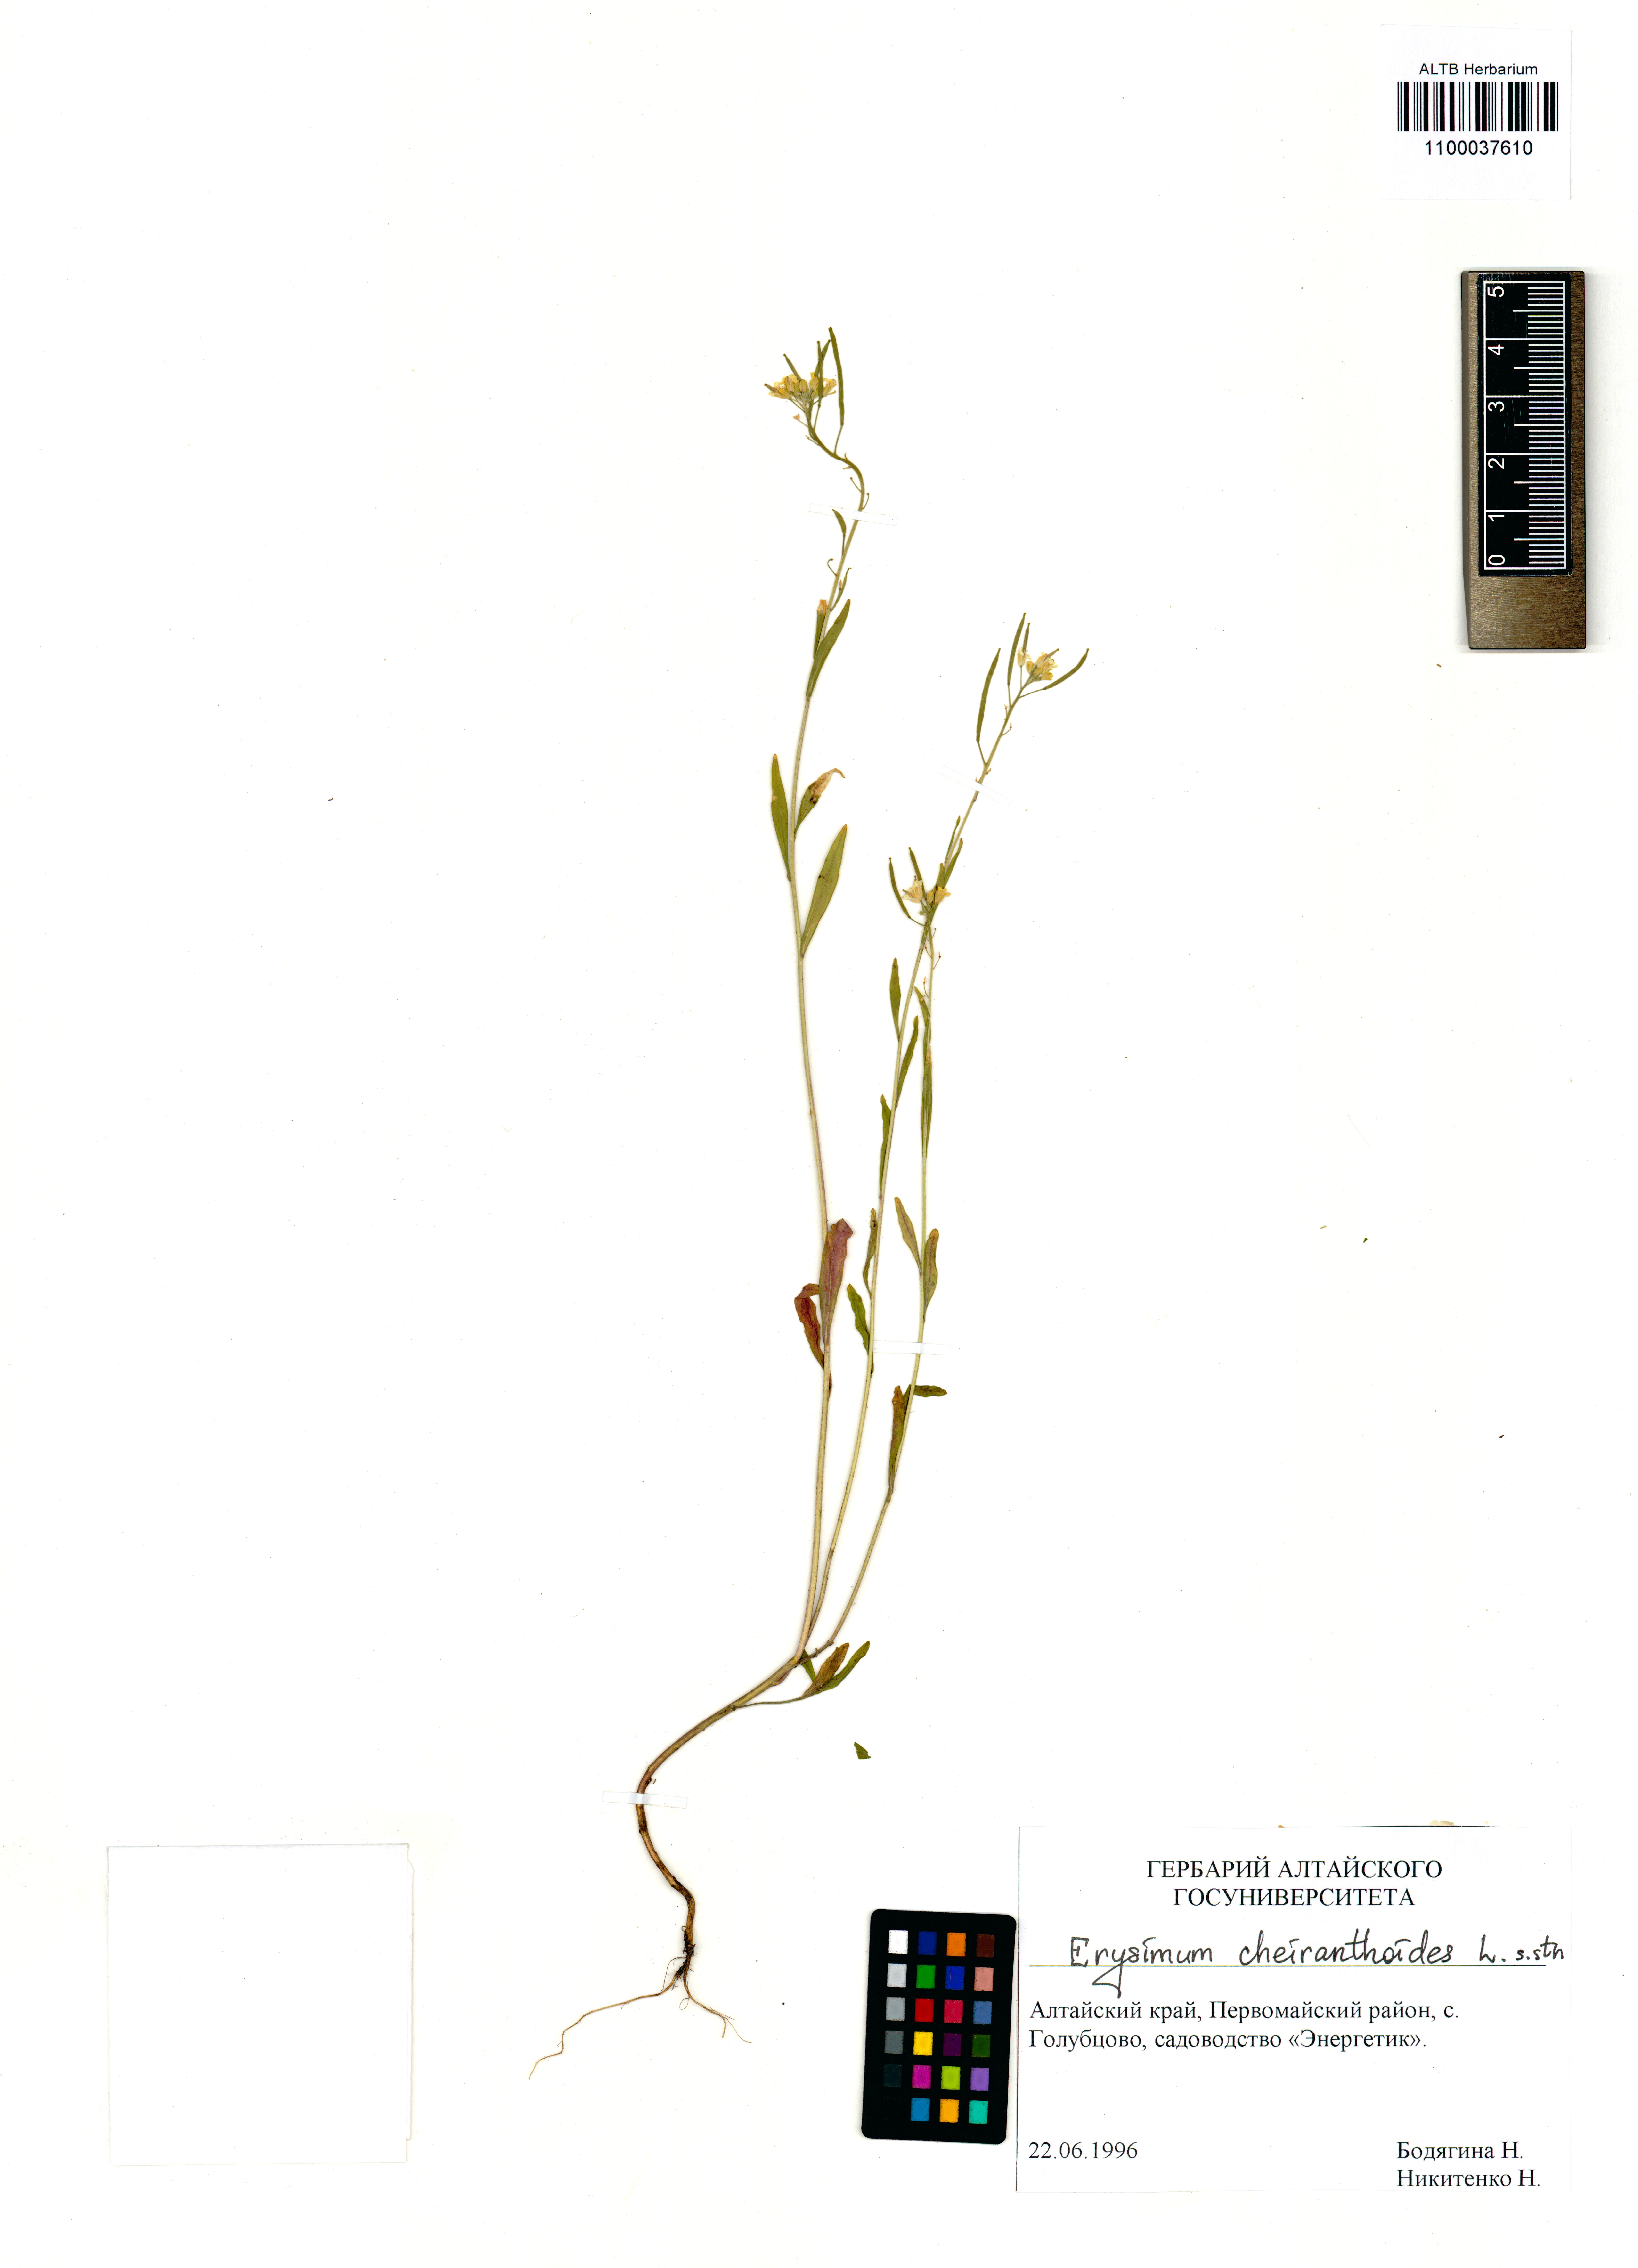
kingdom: Plantae
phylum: Tracheophyta
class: Magnoliopsida
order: Brassicales
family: Brassicaceae
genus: Erysimum
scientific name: Erysimum cheiranthoides
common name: Treacle mustard
